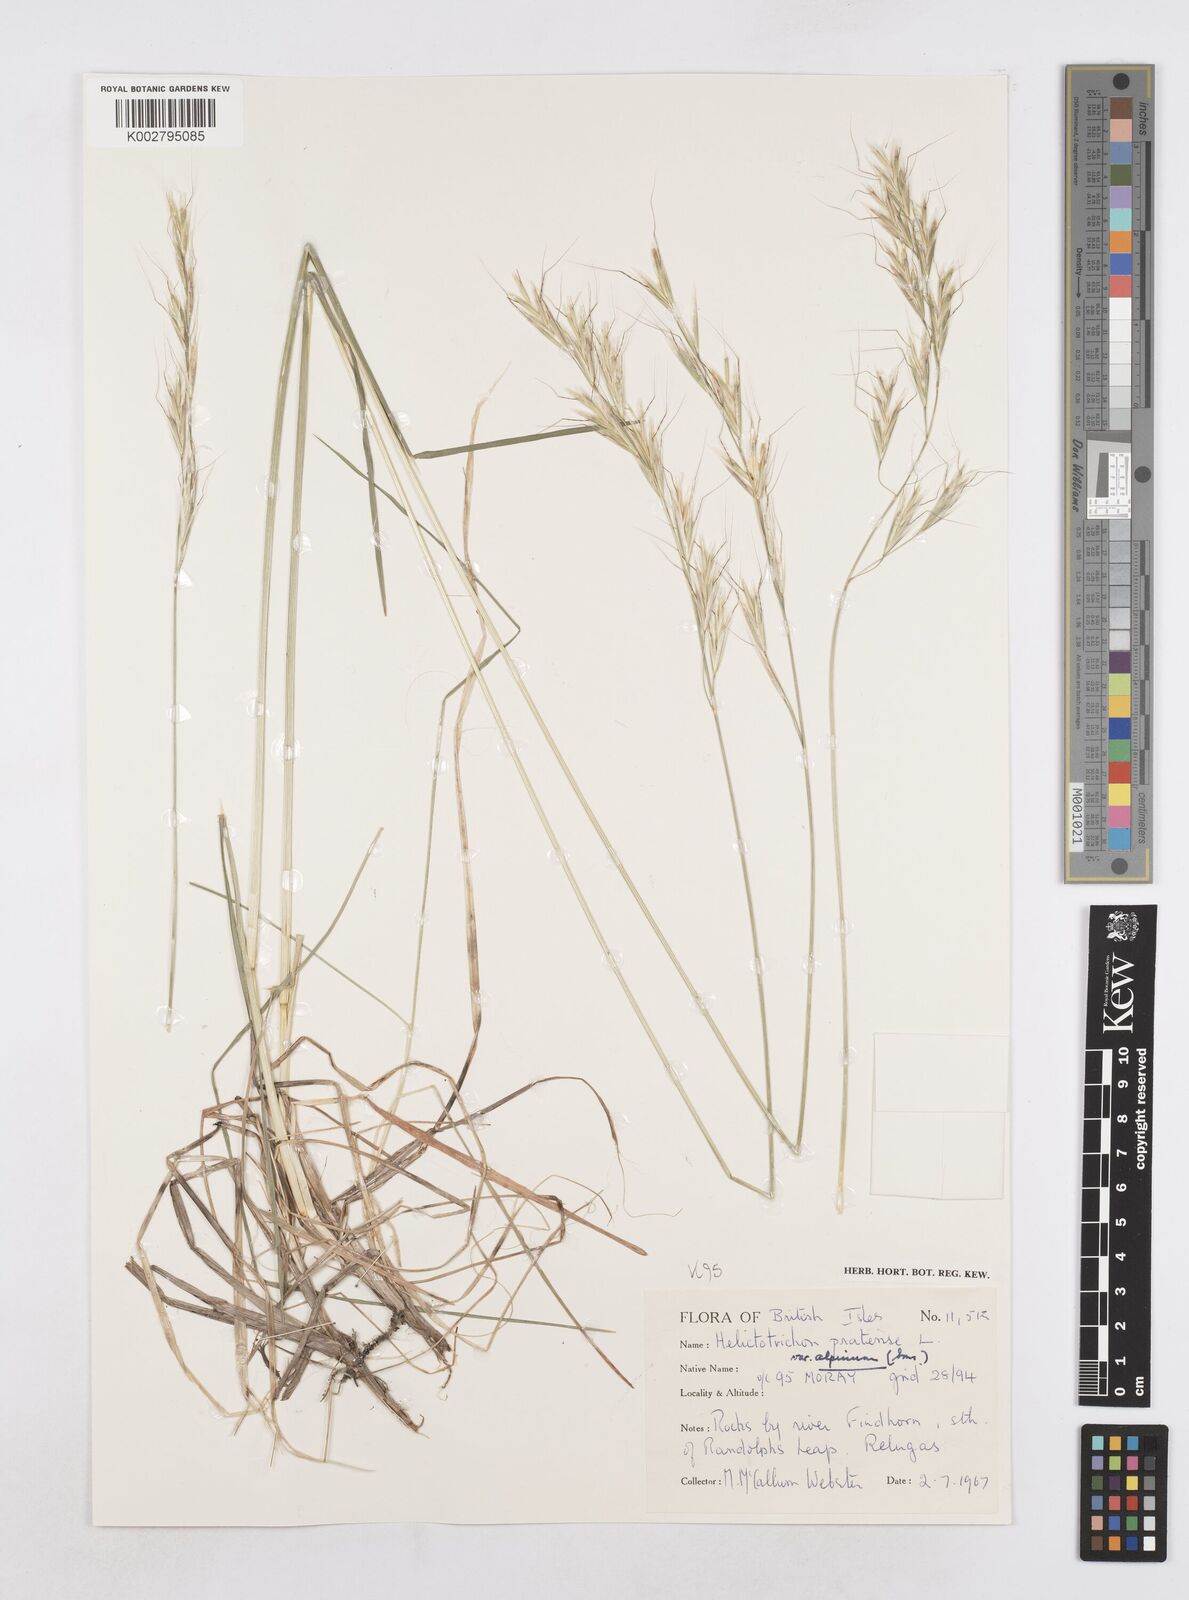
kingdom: Plantae
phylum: Tracheophyta
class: Liliopsida
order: Poales
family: Poaceae
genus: Helictochloa
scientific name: Helictochloa pratensis
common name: Meadow oat grass
